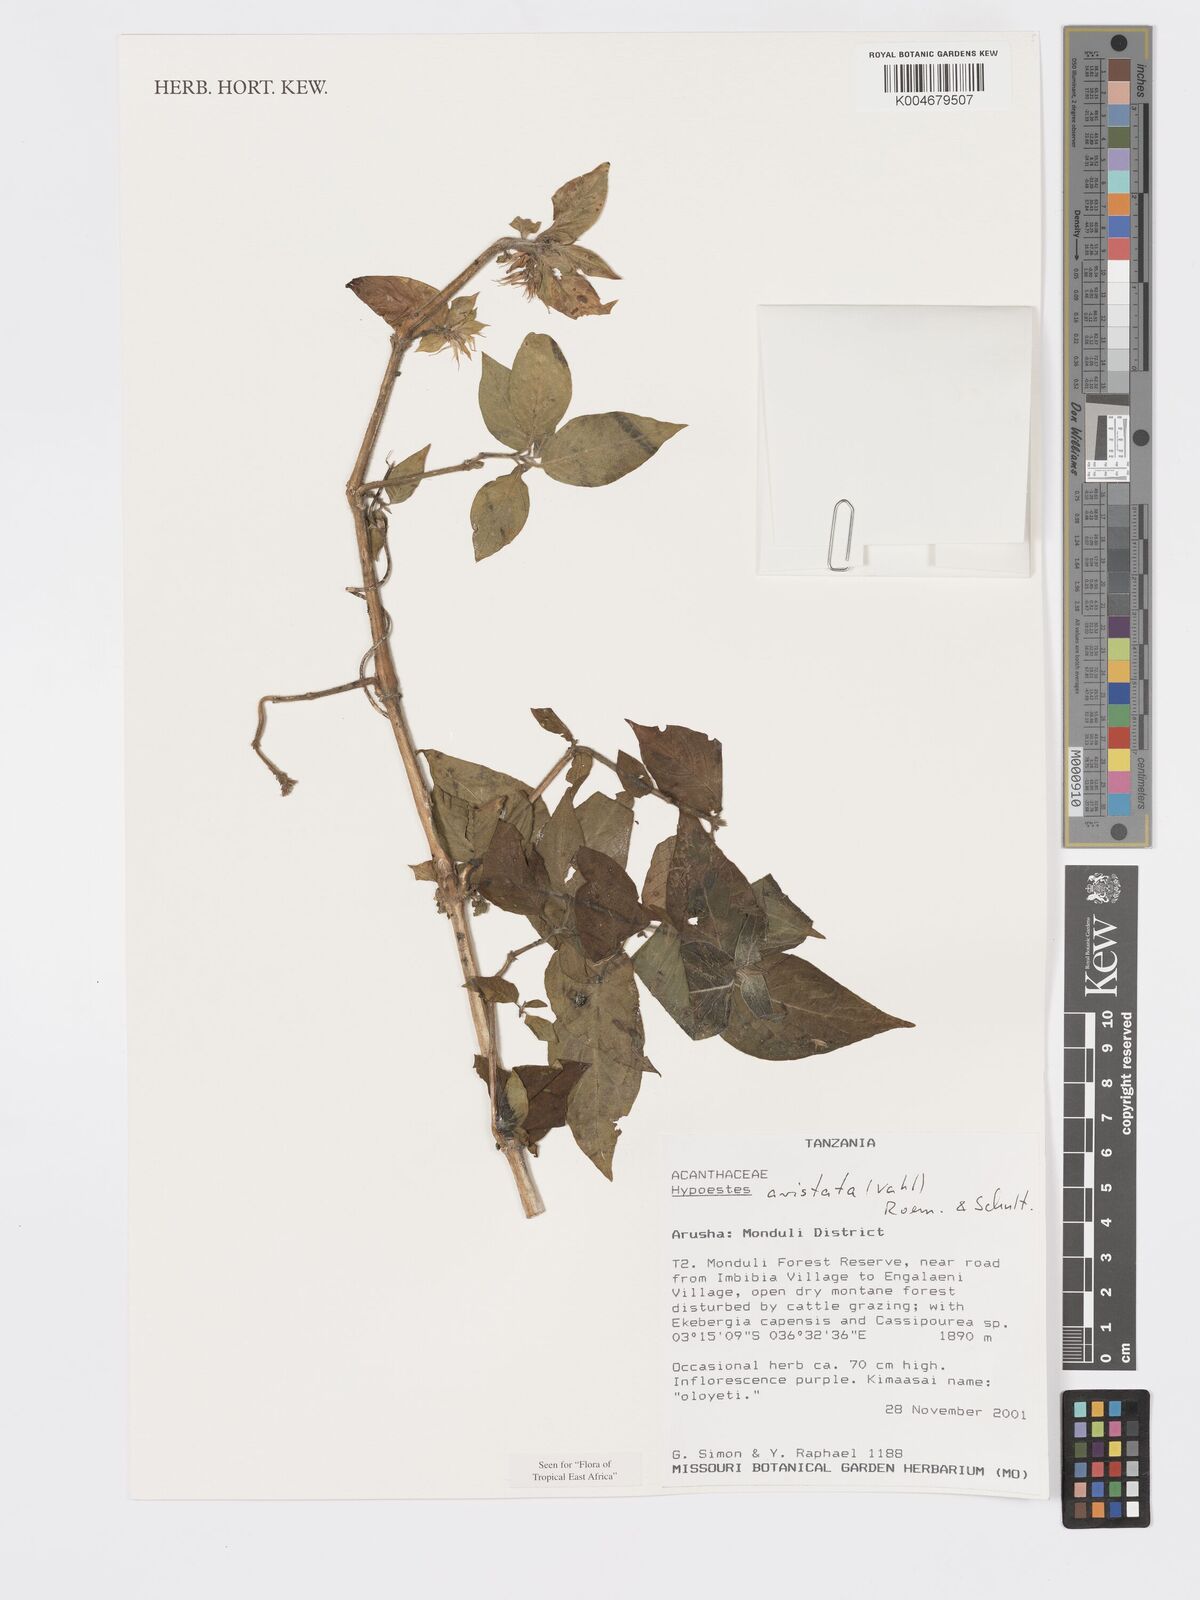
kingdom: Plantae
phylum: Tracheophyta
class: Magnoliopsida
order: Lamiales
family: Acanthaceae
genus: Hypoestes
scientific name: Hypoestes aristata
